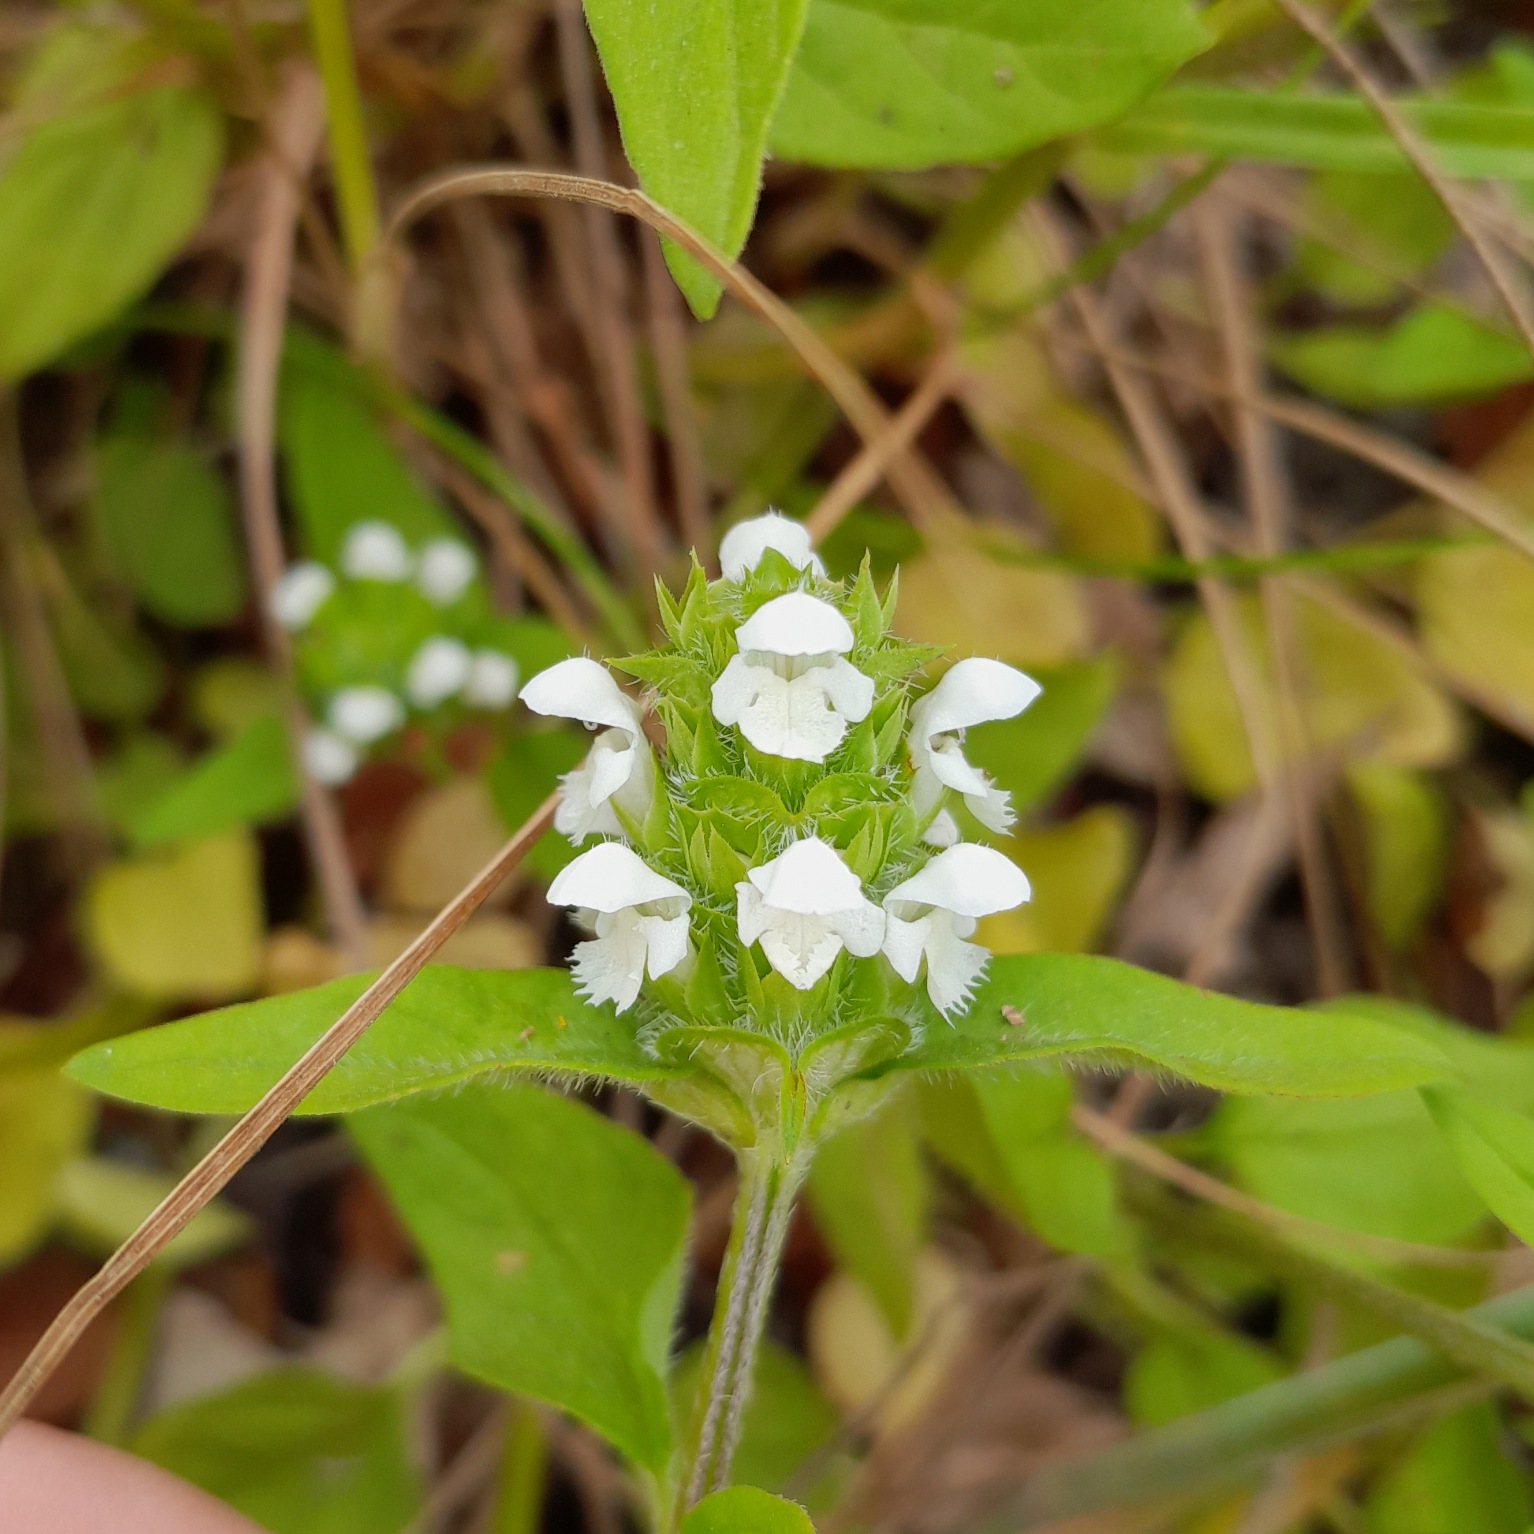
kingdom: Plantae
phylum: Tracheophyta
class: Magnoliopsida
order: Lamiales
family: Lamiaceae
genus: Prunella
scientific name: Prunella vulgaris
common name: Almindelig brunelle
